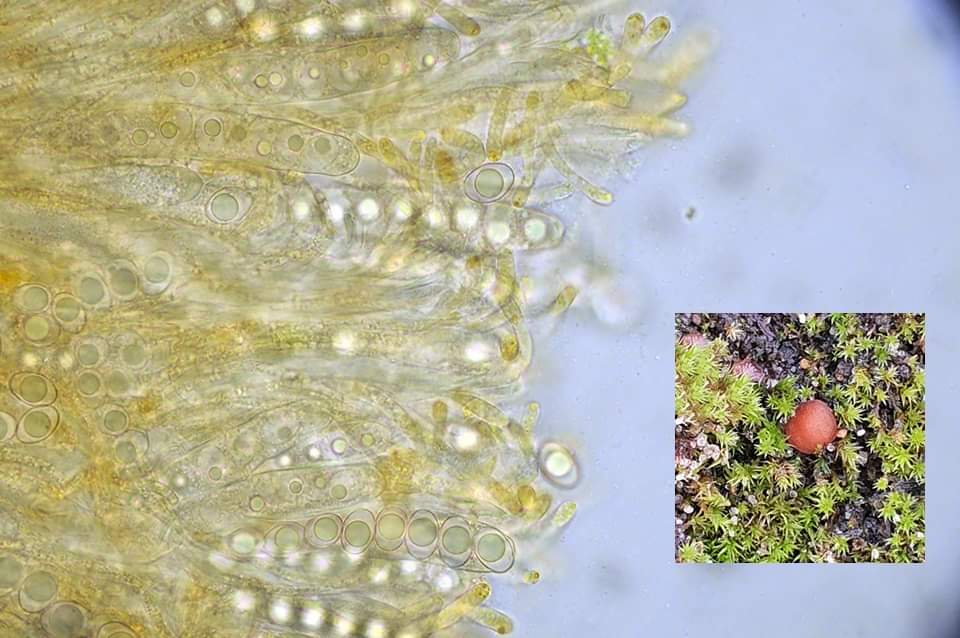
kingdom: Fungi
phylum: Ascomycota
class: Pezizomycetes
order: Pezizales
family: Pyronemataceae
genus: Octospora
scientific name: Octospora rubens
